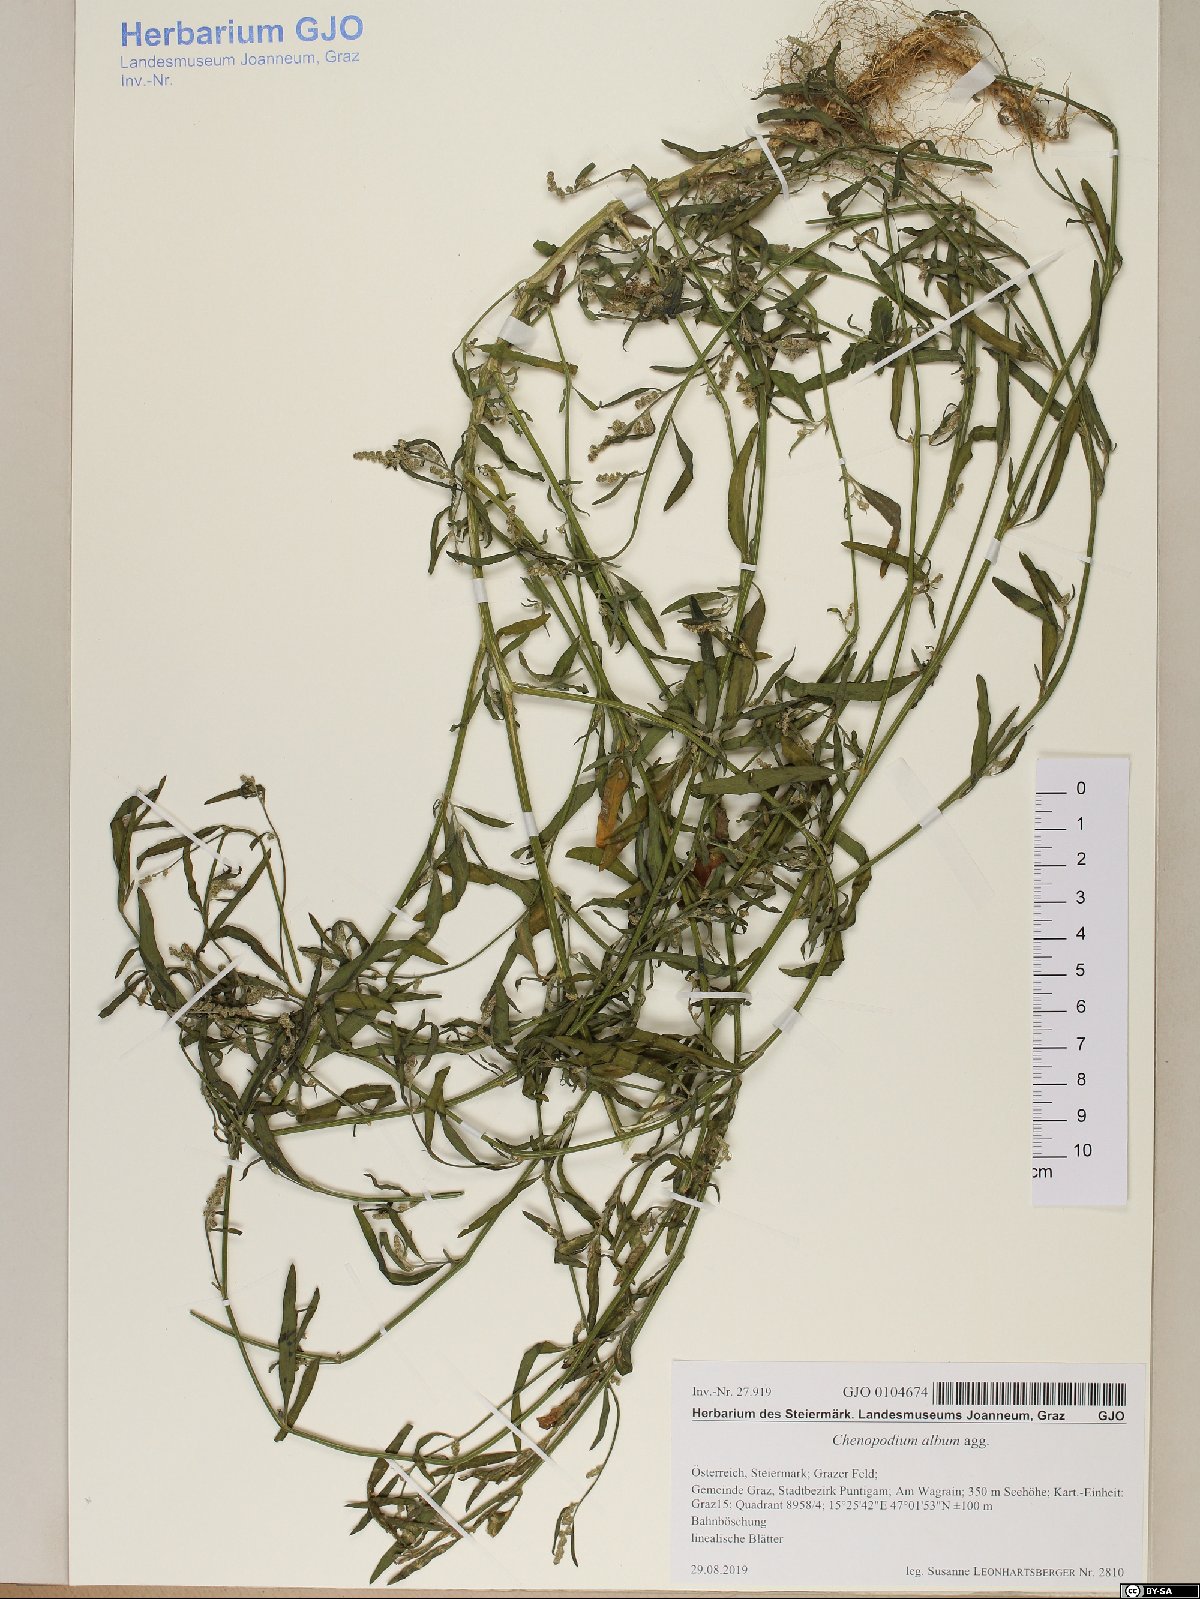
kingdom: Plantae
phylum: Tracheophyta
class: Magnoliopsida
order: Caryophyllales
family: Amaranthaceae
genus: Chenopodium
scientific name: Chenopodium album
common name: Fat-hen
